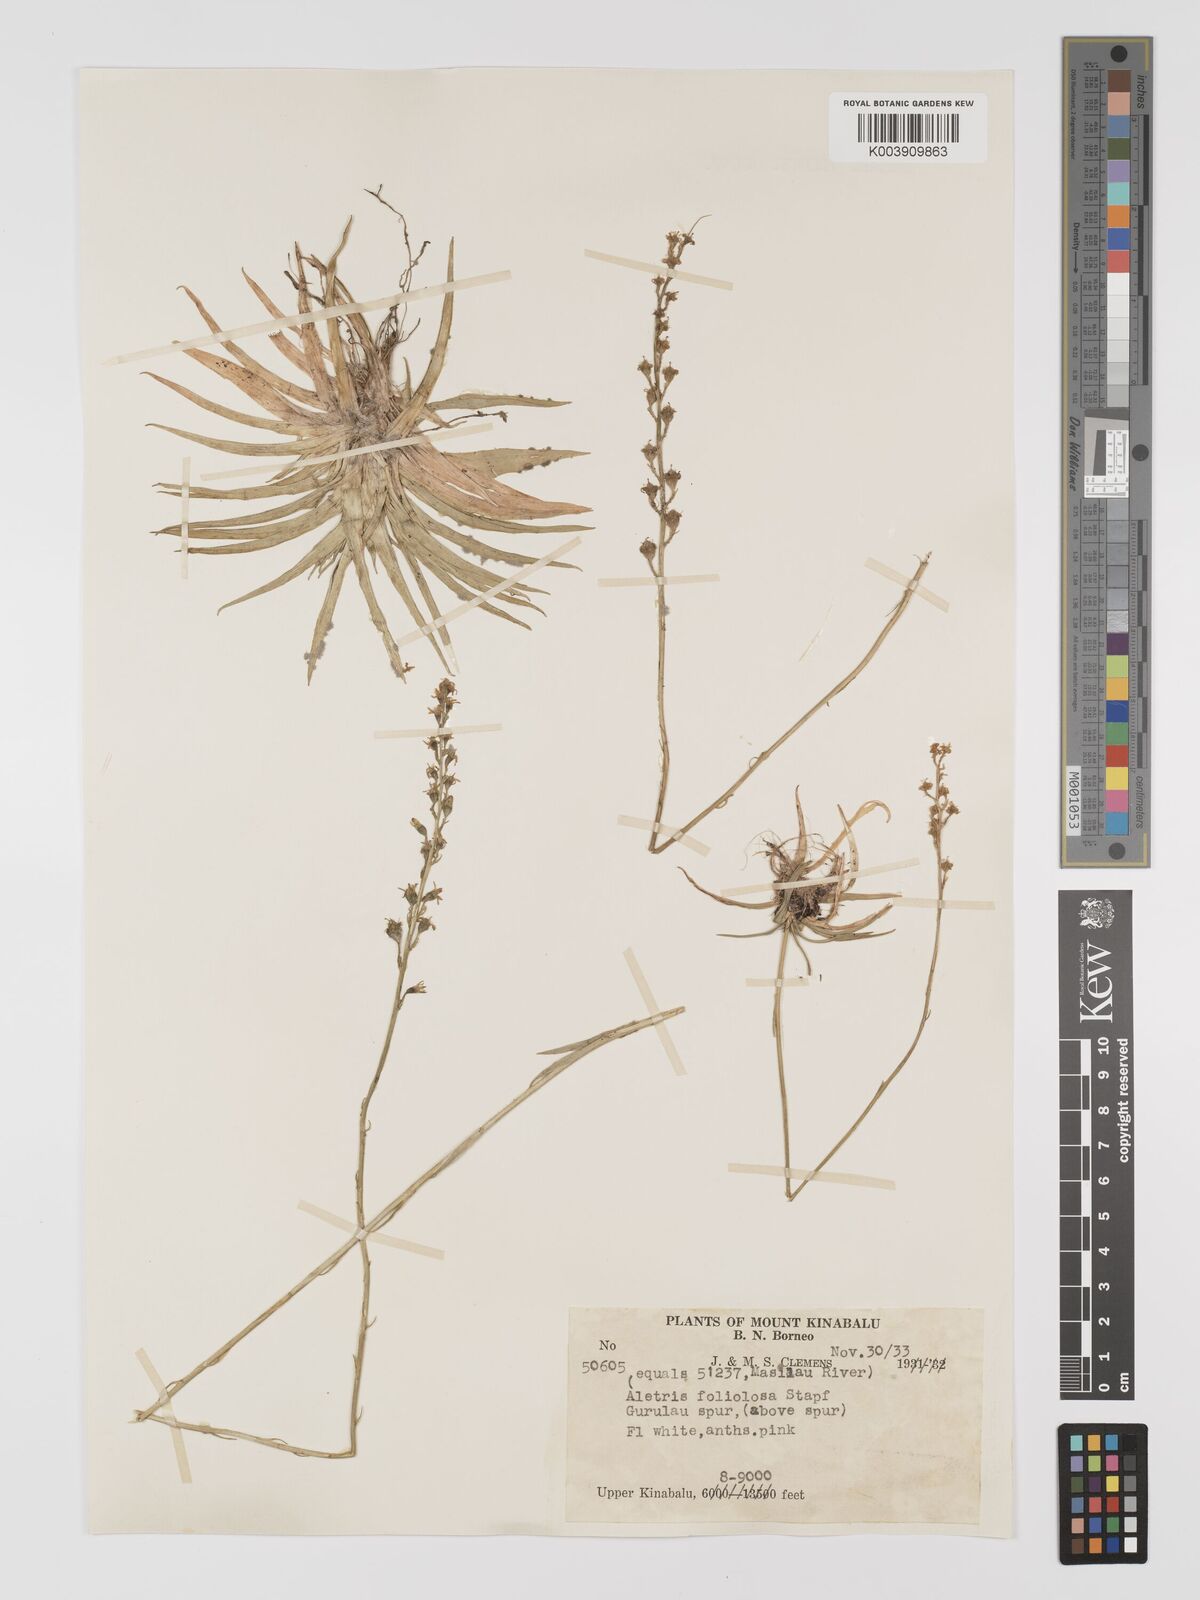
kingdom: Plantae
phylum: Tracheophyta
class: Liliopsida
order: Dioscoreales
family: Nartheciaceae
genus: Aletris
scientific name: Aletris foliolosa
